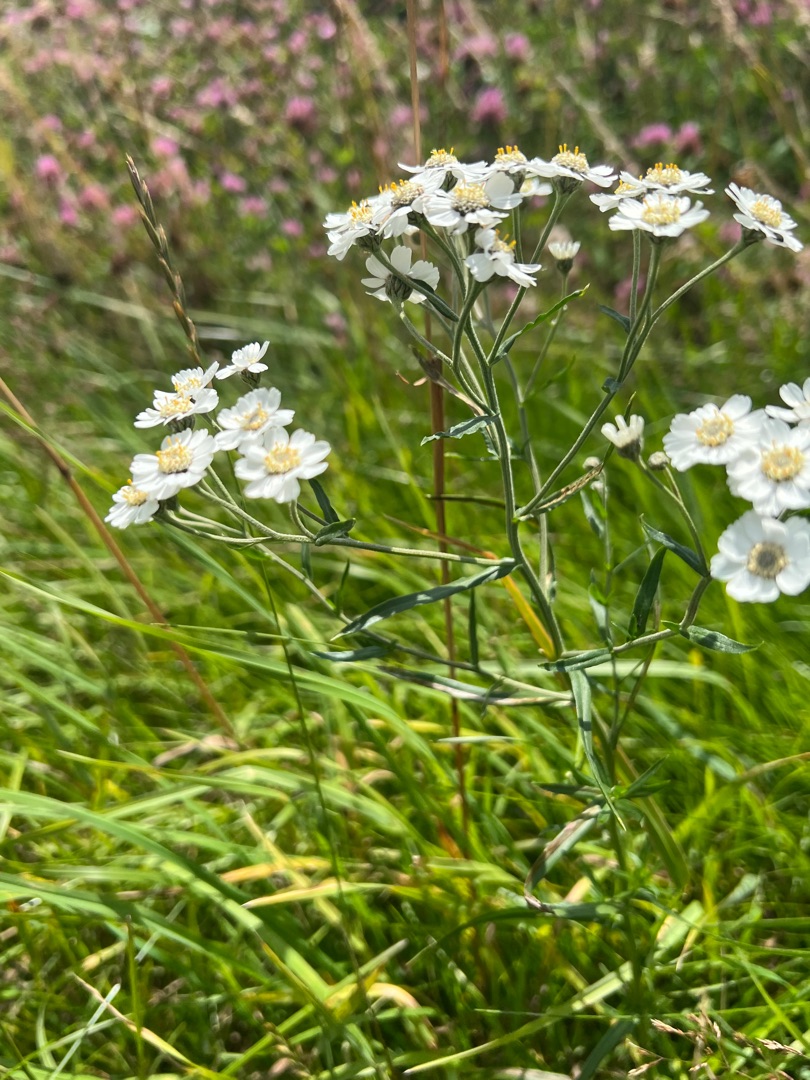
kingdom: Plantae
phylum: Tracheophyta
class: Magnoliopsida
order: Asterales
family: Asteraceae
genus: Achillea
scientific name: Achillea ptarmica
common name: Nyse-røllike
